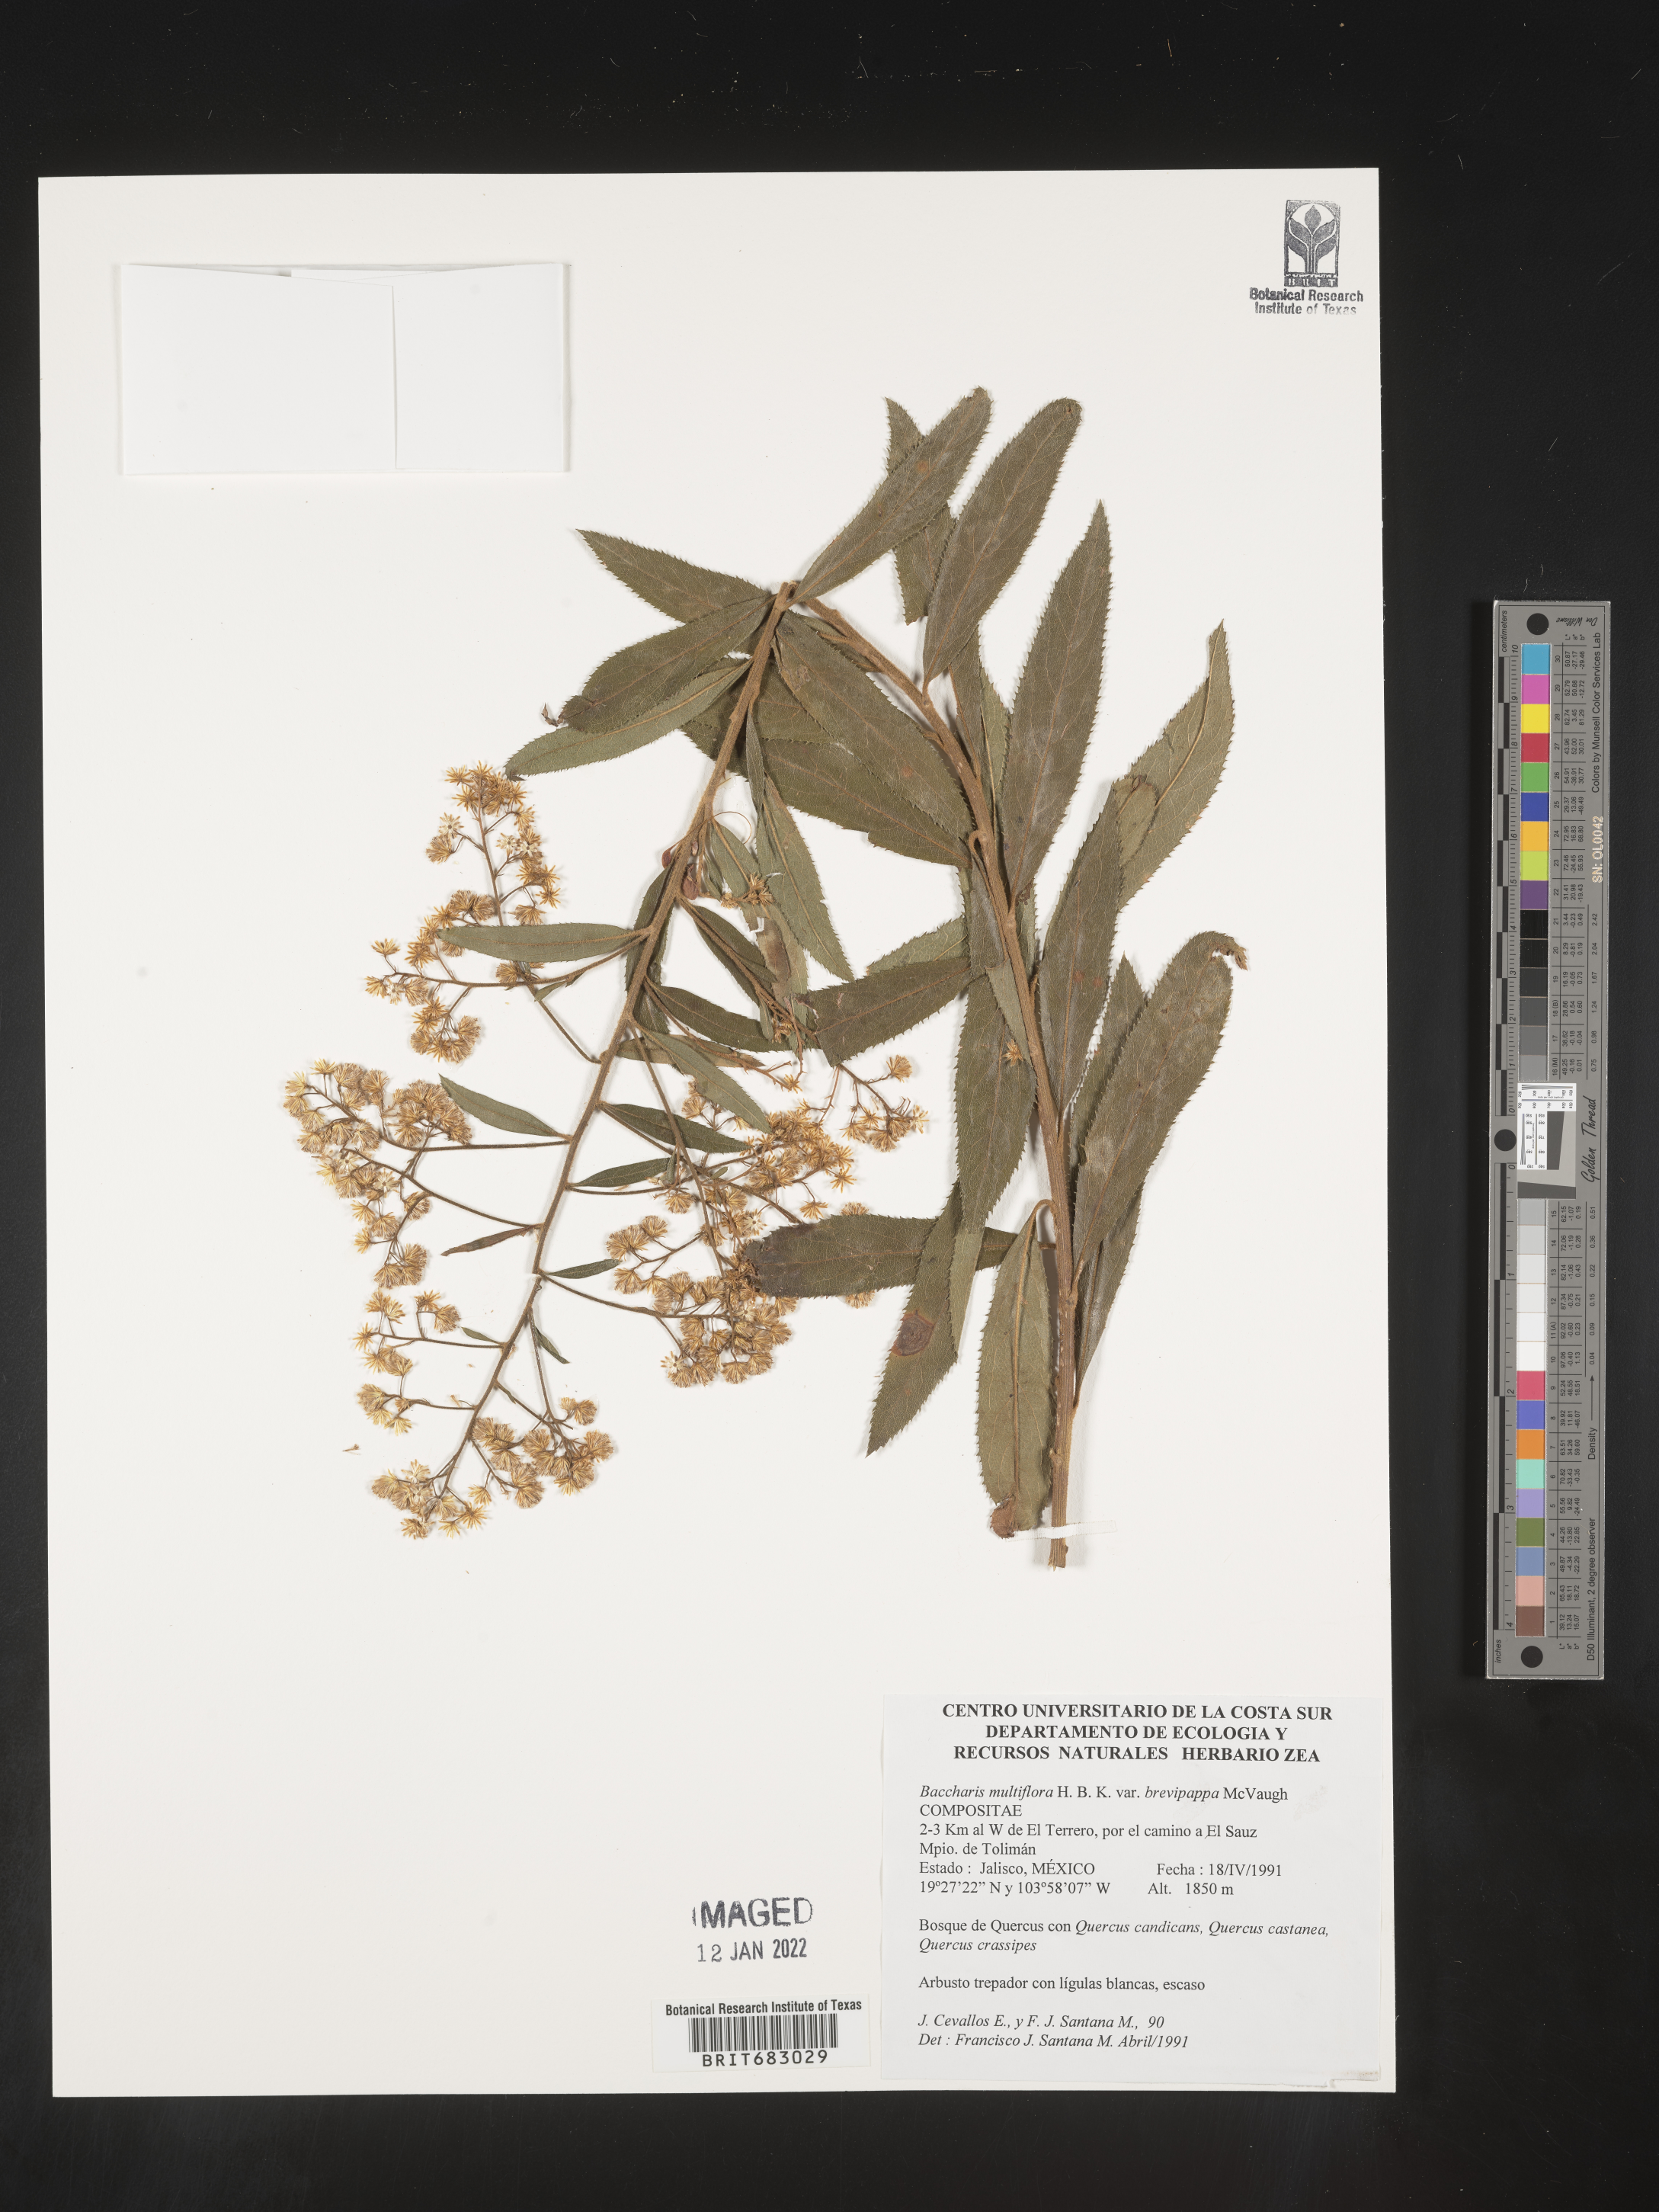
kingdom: Plantae
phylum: Tracheophyta
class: Magnoliopsida
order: Asterales
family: Asteraceae
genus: Baccharis
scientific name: Baccharis brevipappa
